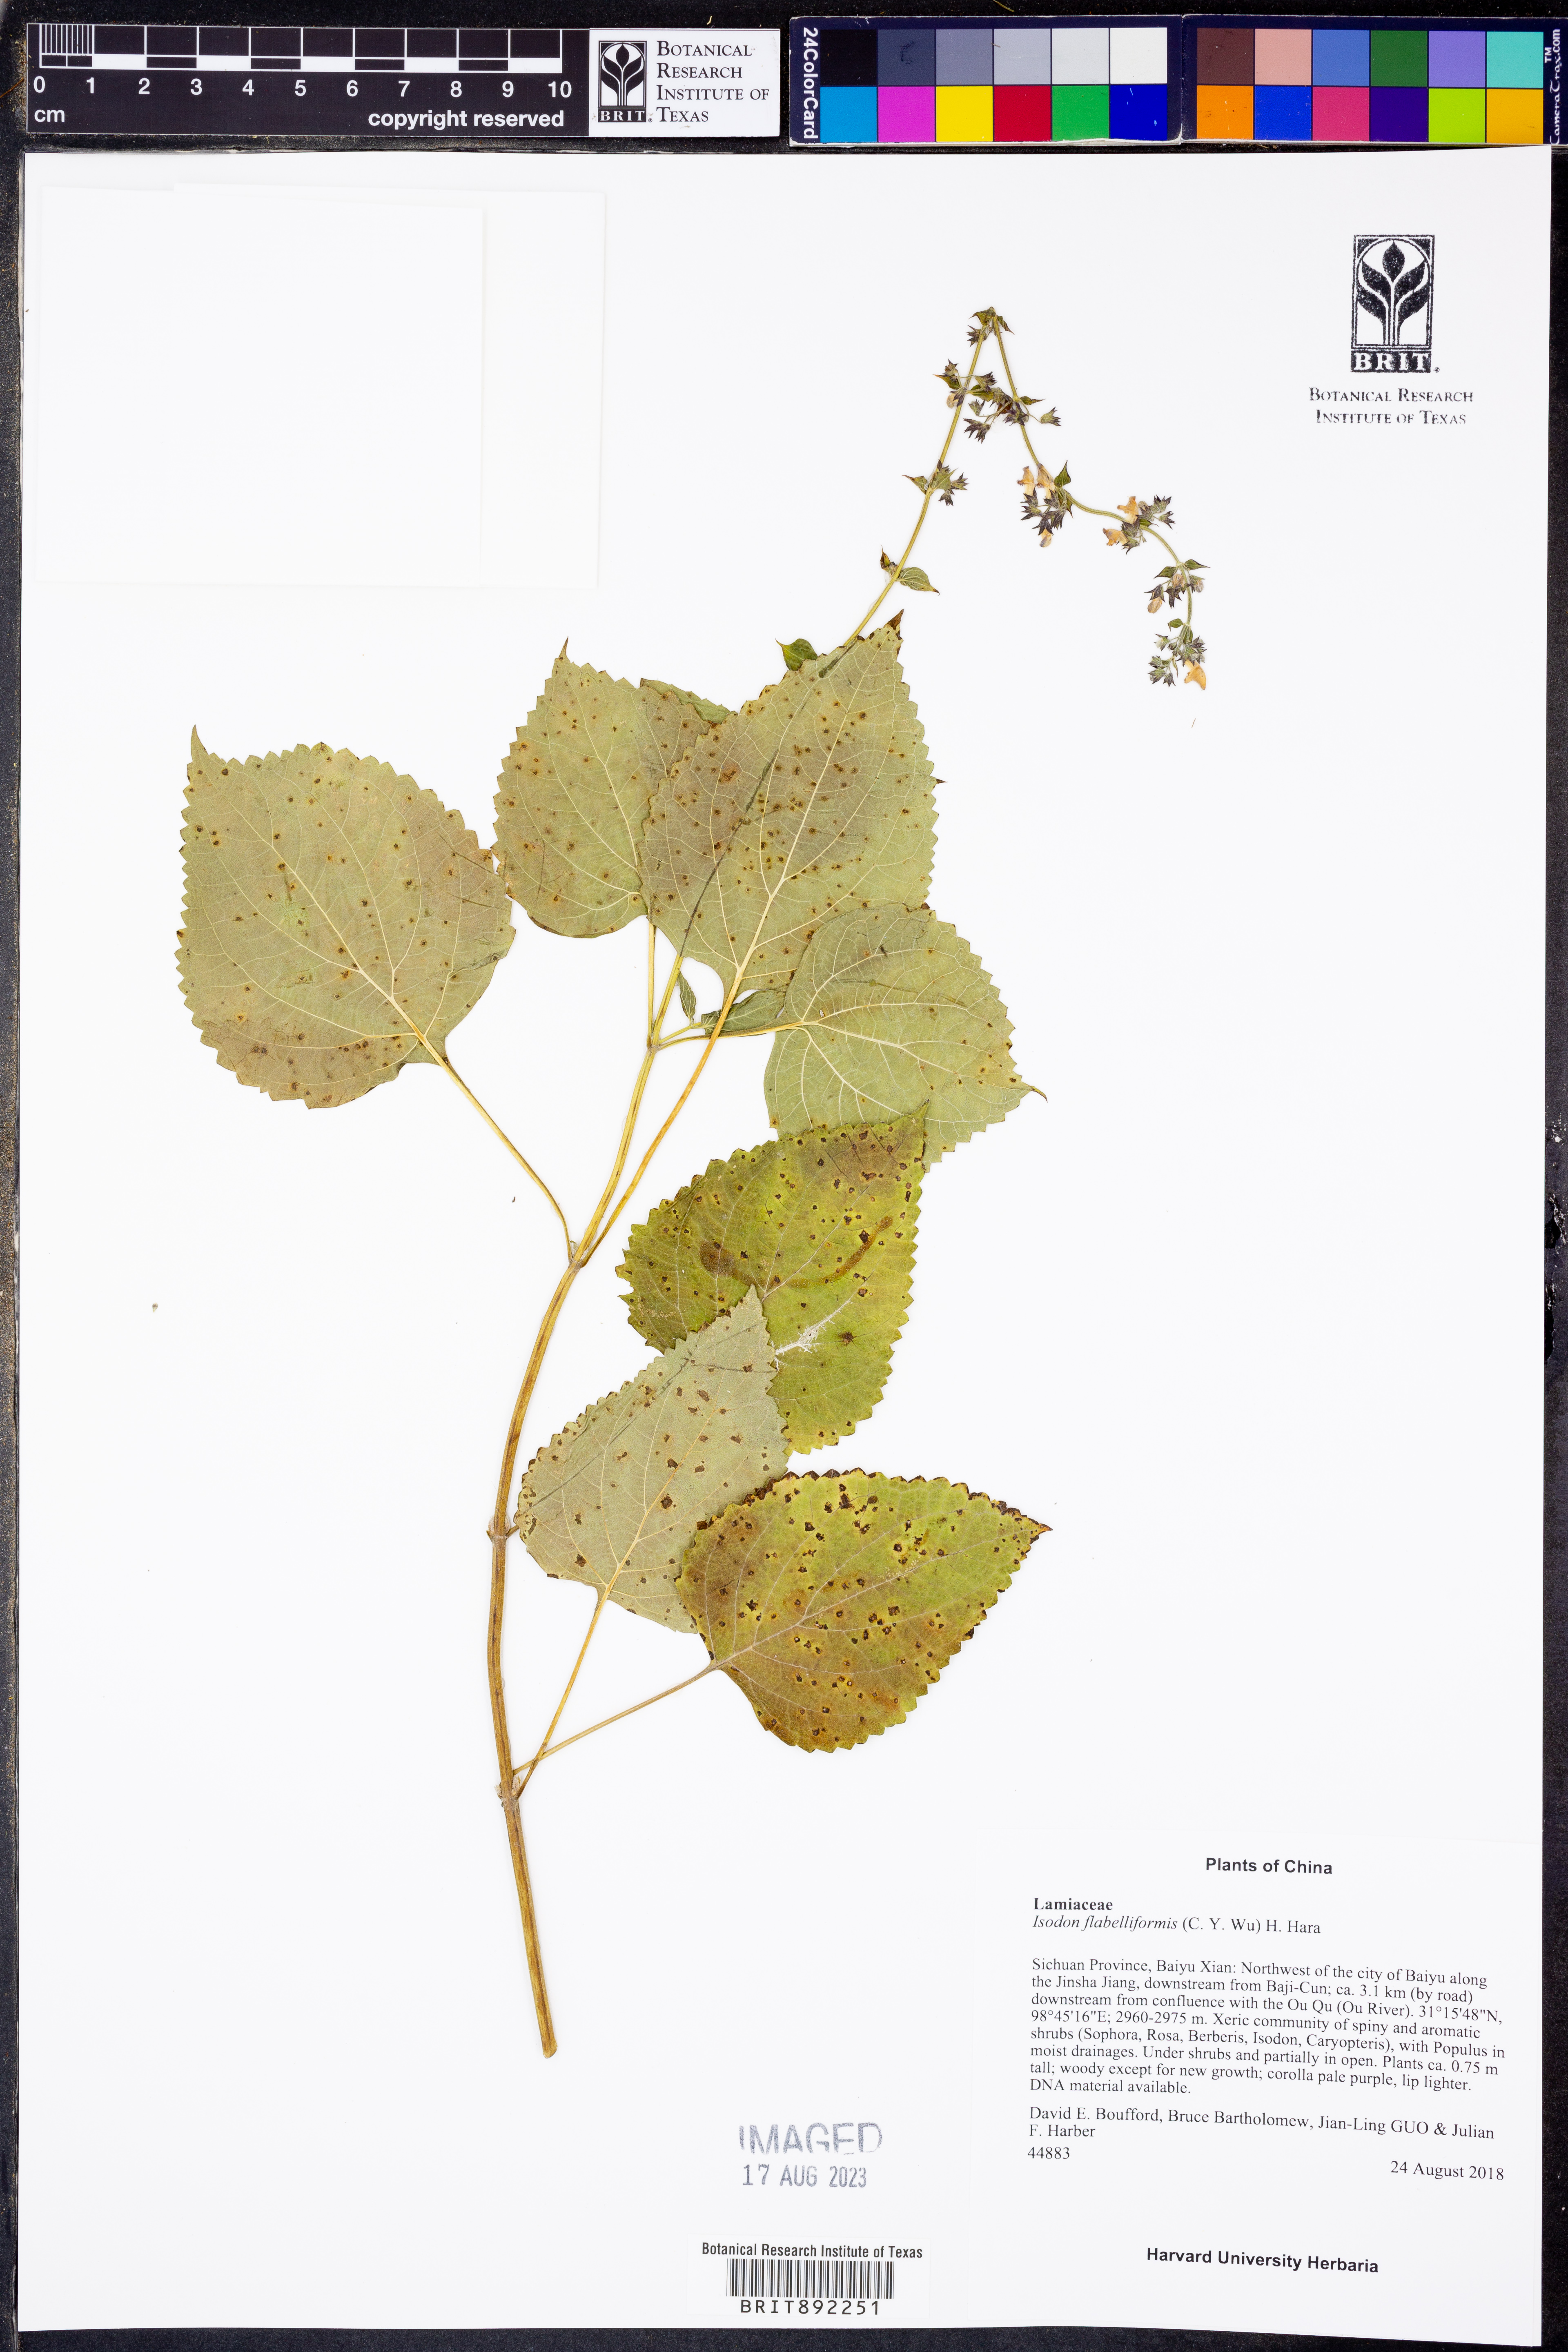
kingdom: Plantae
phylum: Tracheophyta
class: Magnoliopsida
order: Lamiales
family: Lamiaceae
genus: Isodon
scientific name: Isodon flabelliformis
